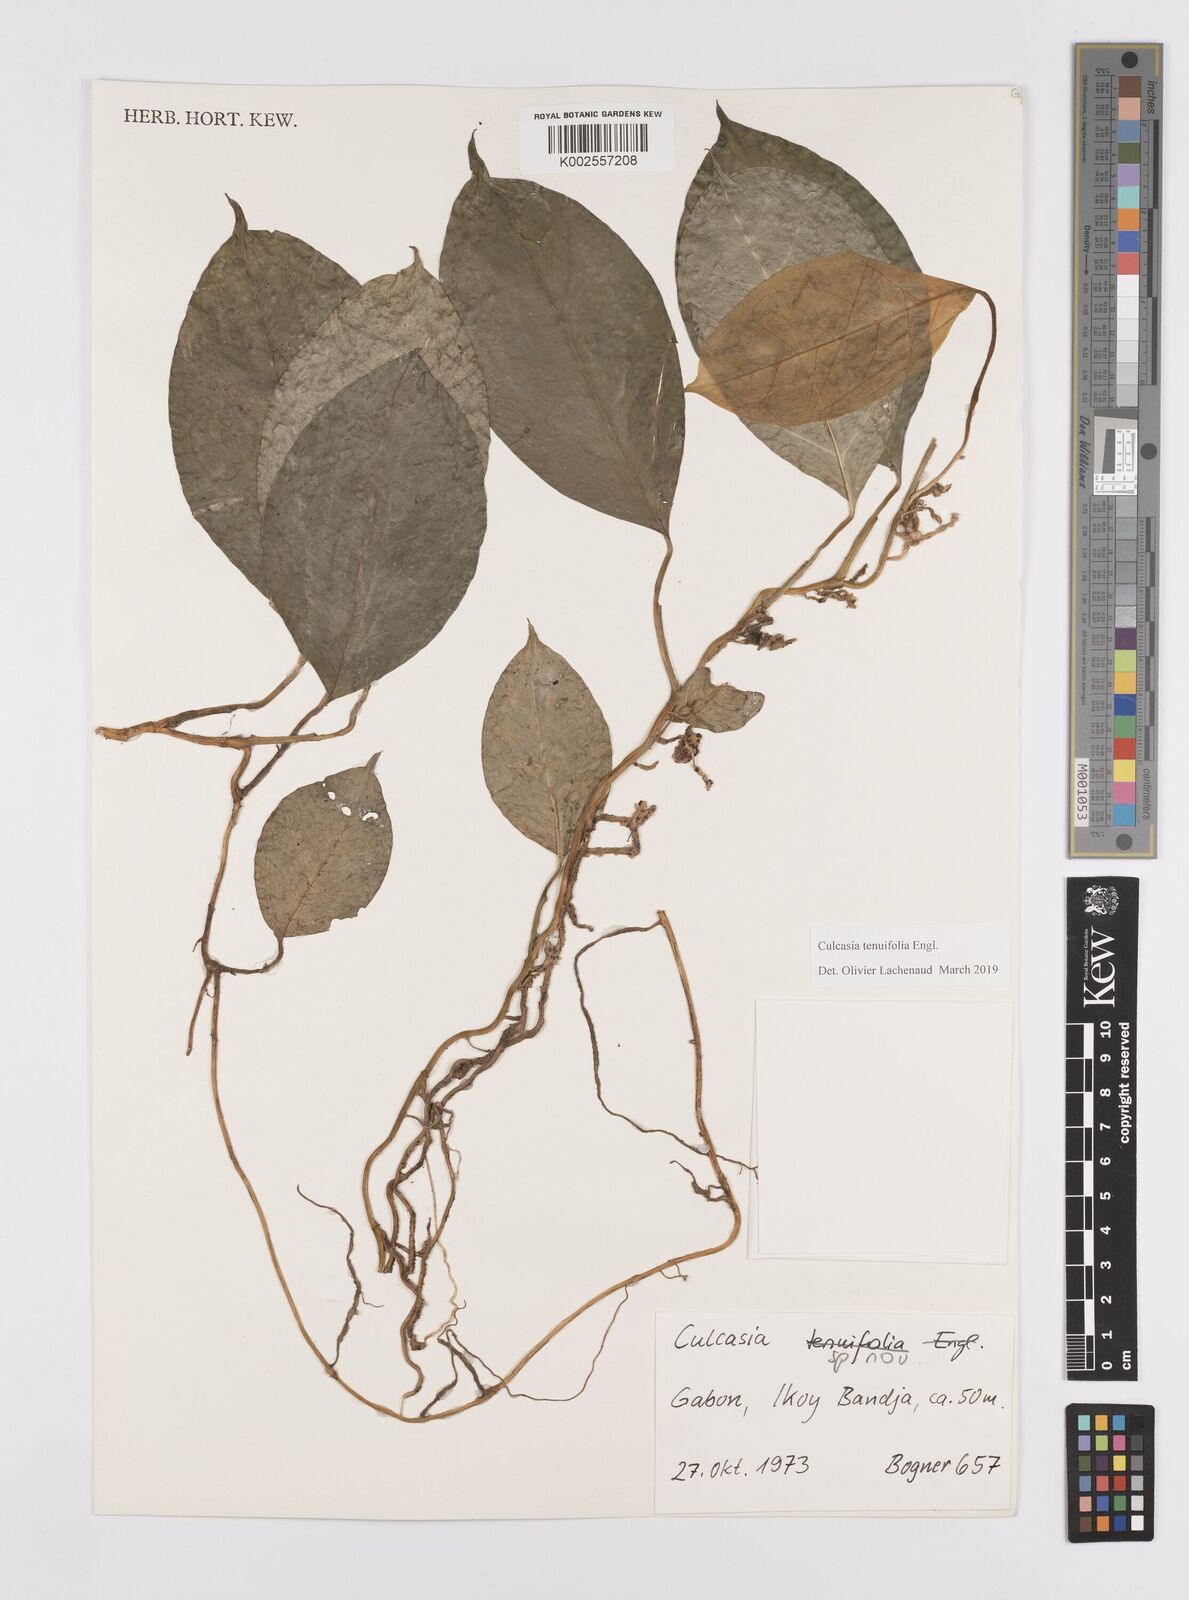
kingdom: Plantae
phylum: Tracheophyta
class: Liliopsida
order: Alismatales
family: Araceae
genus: Culcasia
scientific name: Culcasia tenuifolia
